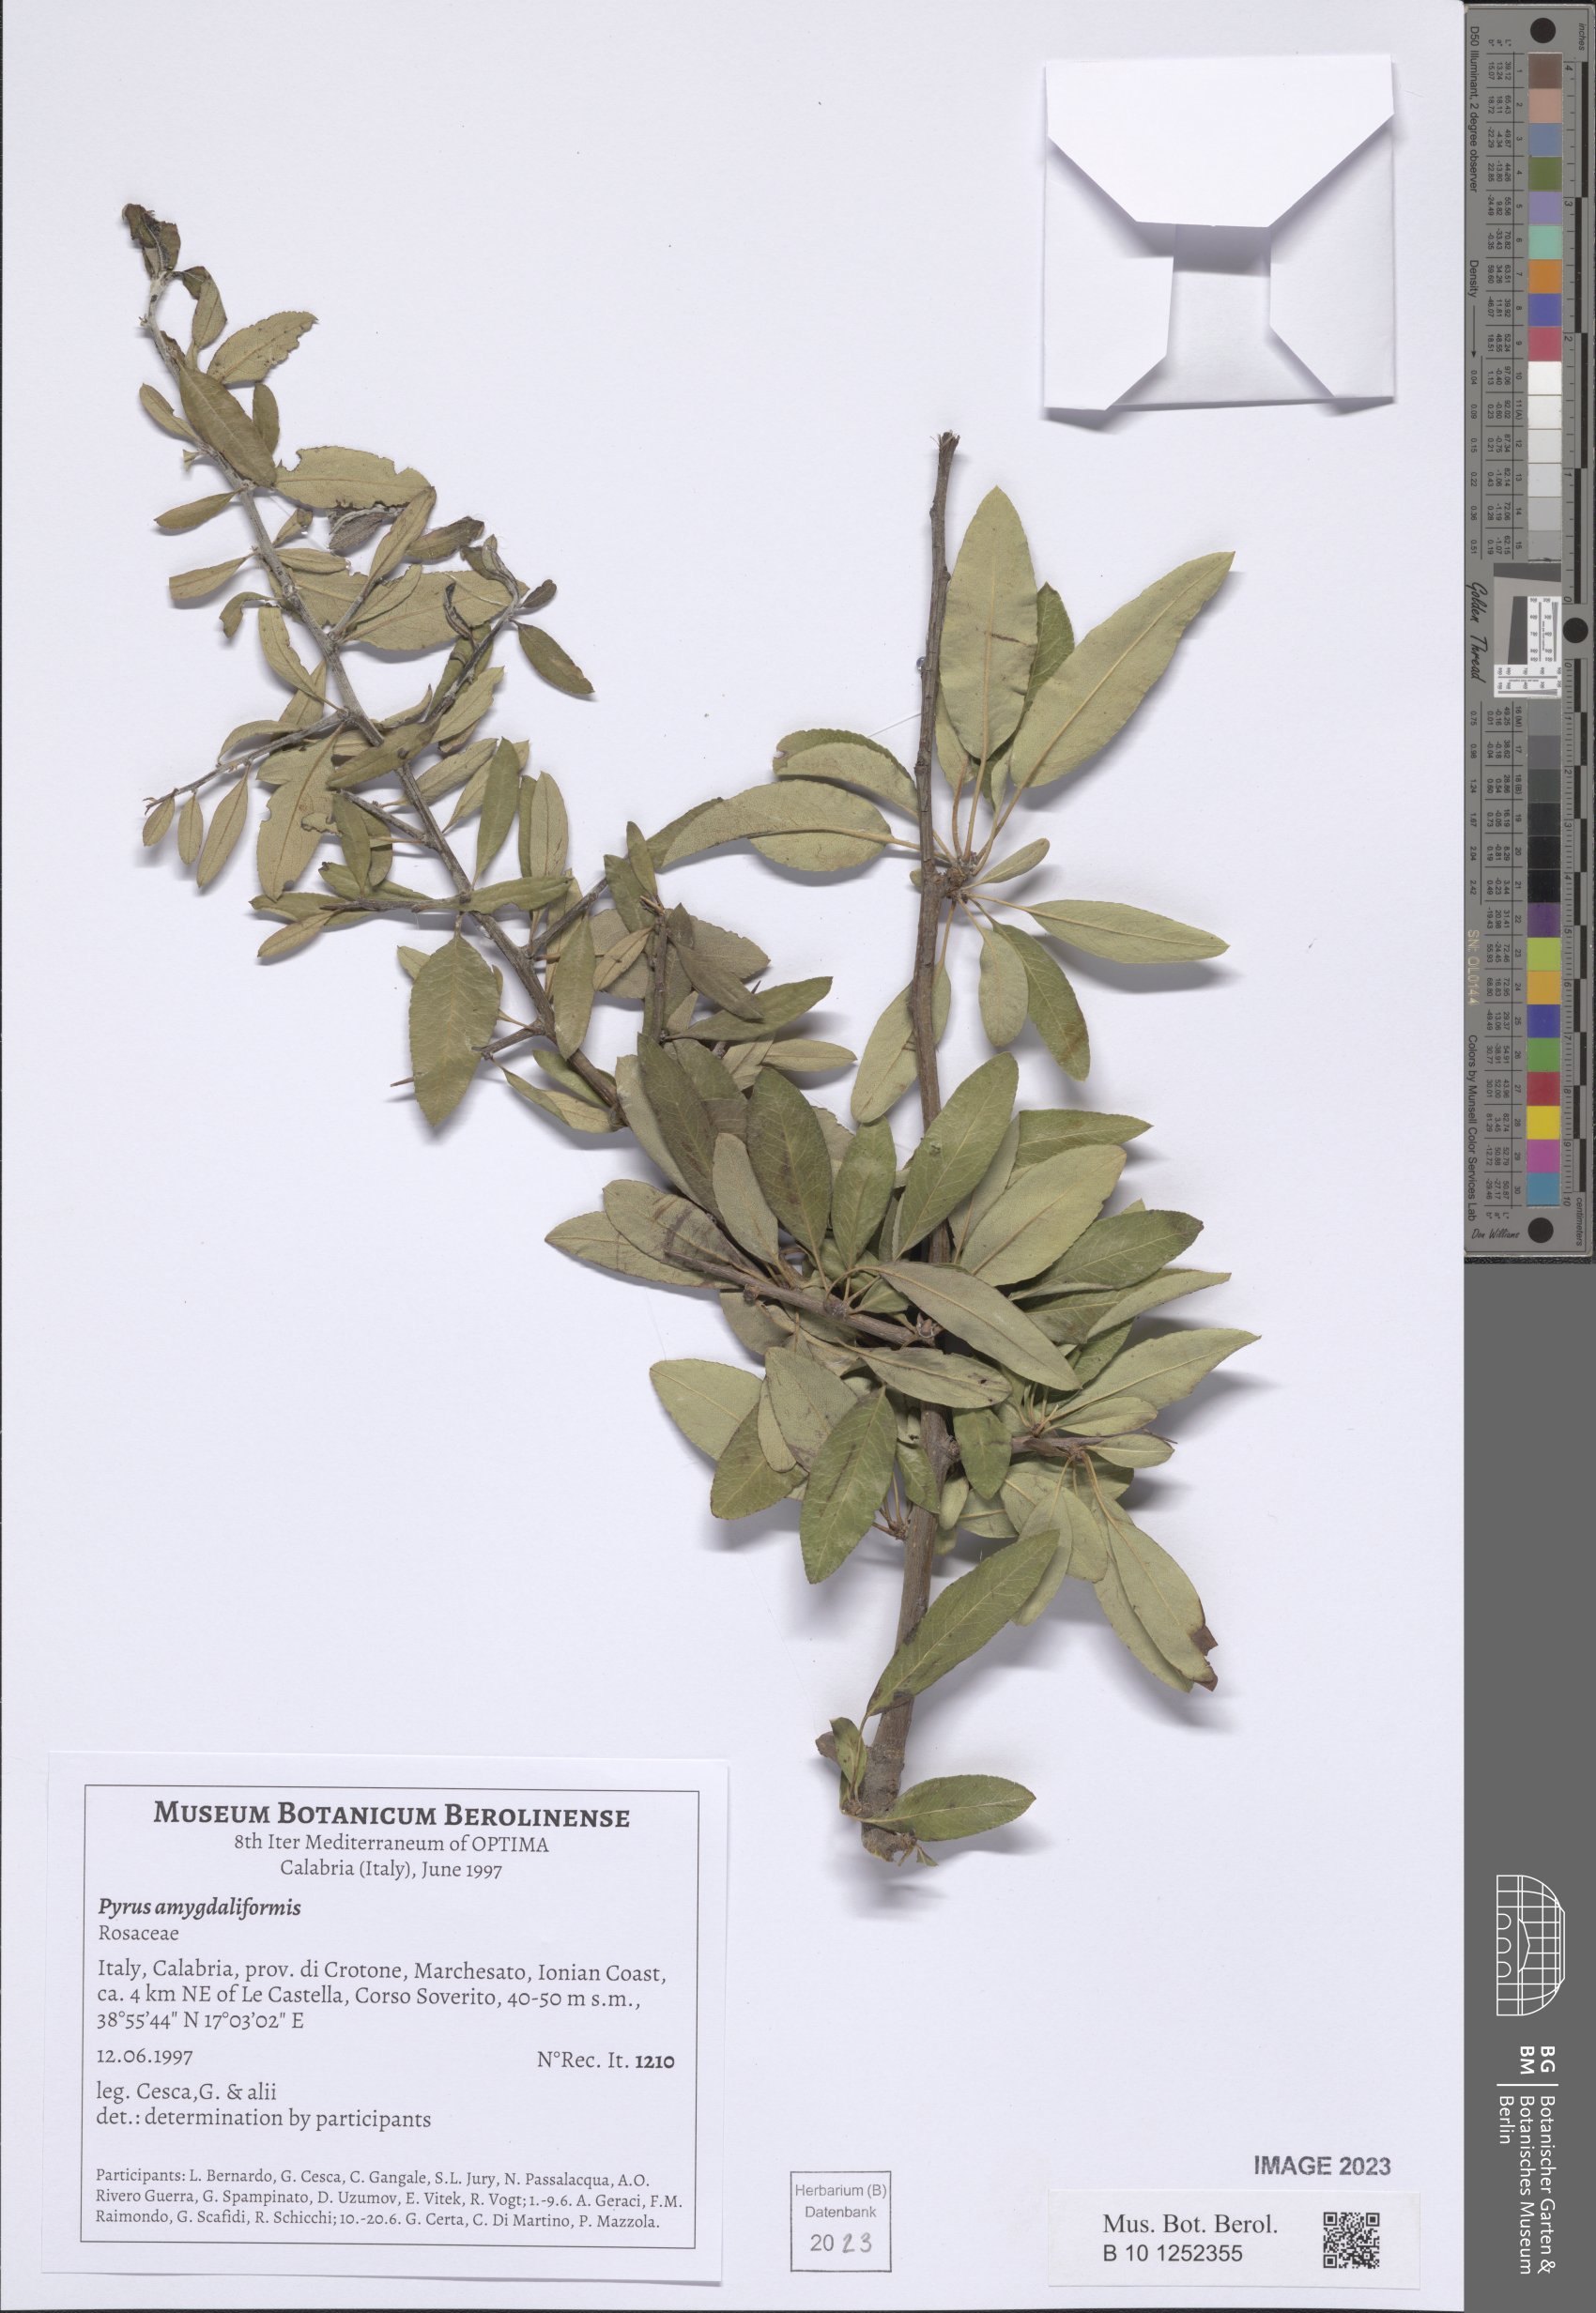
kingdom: Plantae
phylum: Tracheophyta
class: Magnoliopsida
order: Rosales
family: Rosaceae
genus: Pyrus
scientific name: Pyrus spinosa
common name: Almond-leaf pear
